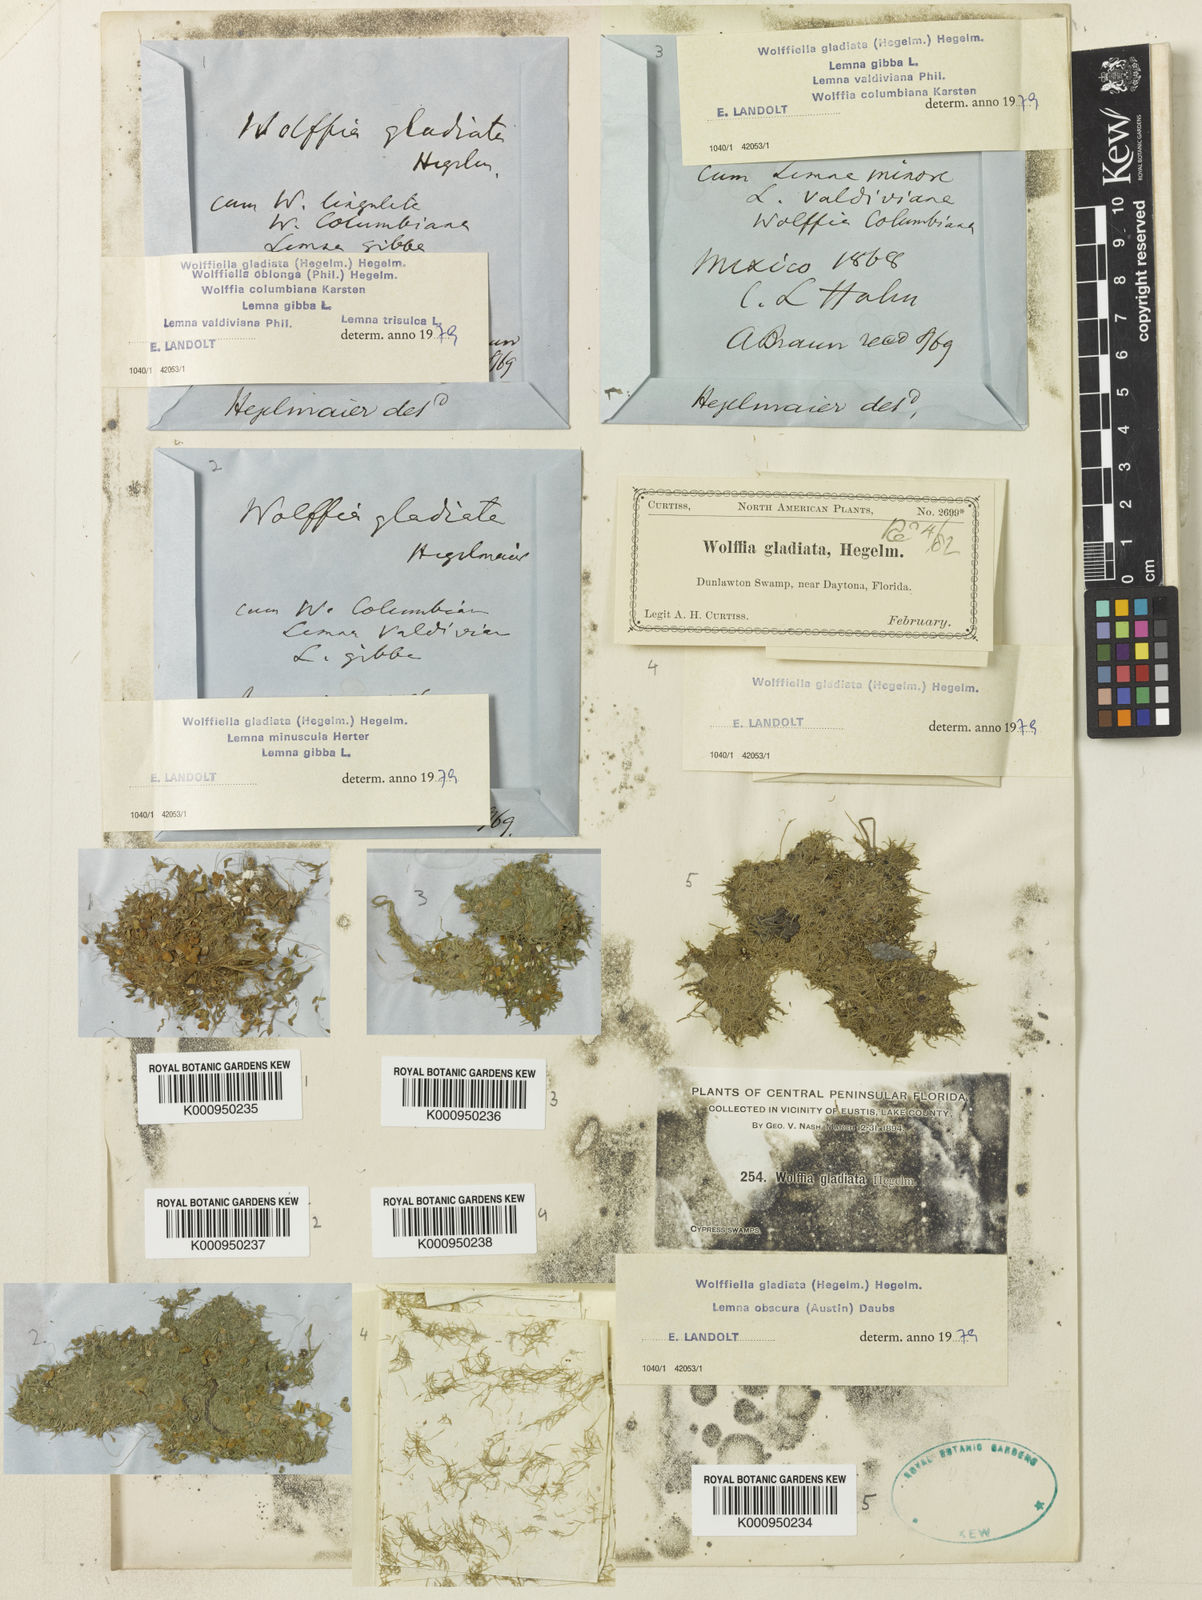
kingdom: Plantae
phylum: Tracheophyta
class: Liliopsida
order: Alismatales
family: Araceae
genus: Wolffiella
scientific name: Wolffiella gladiata
